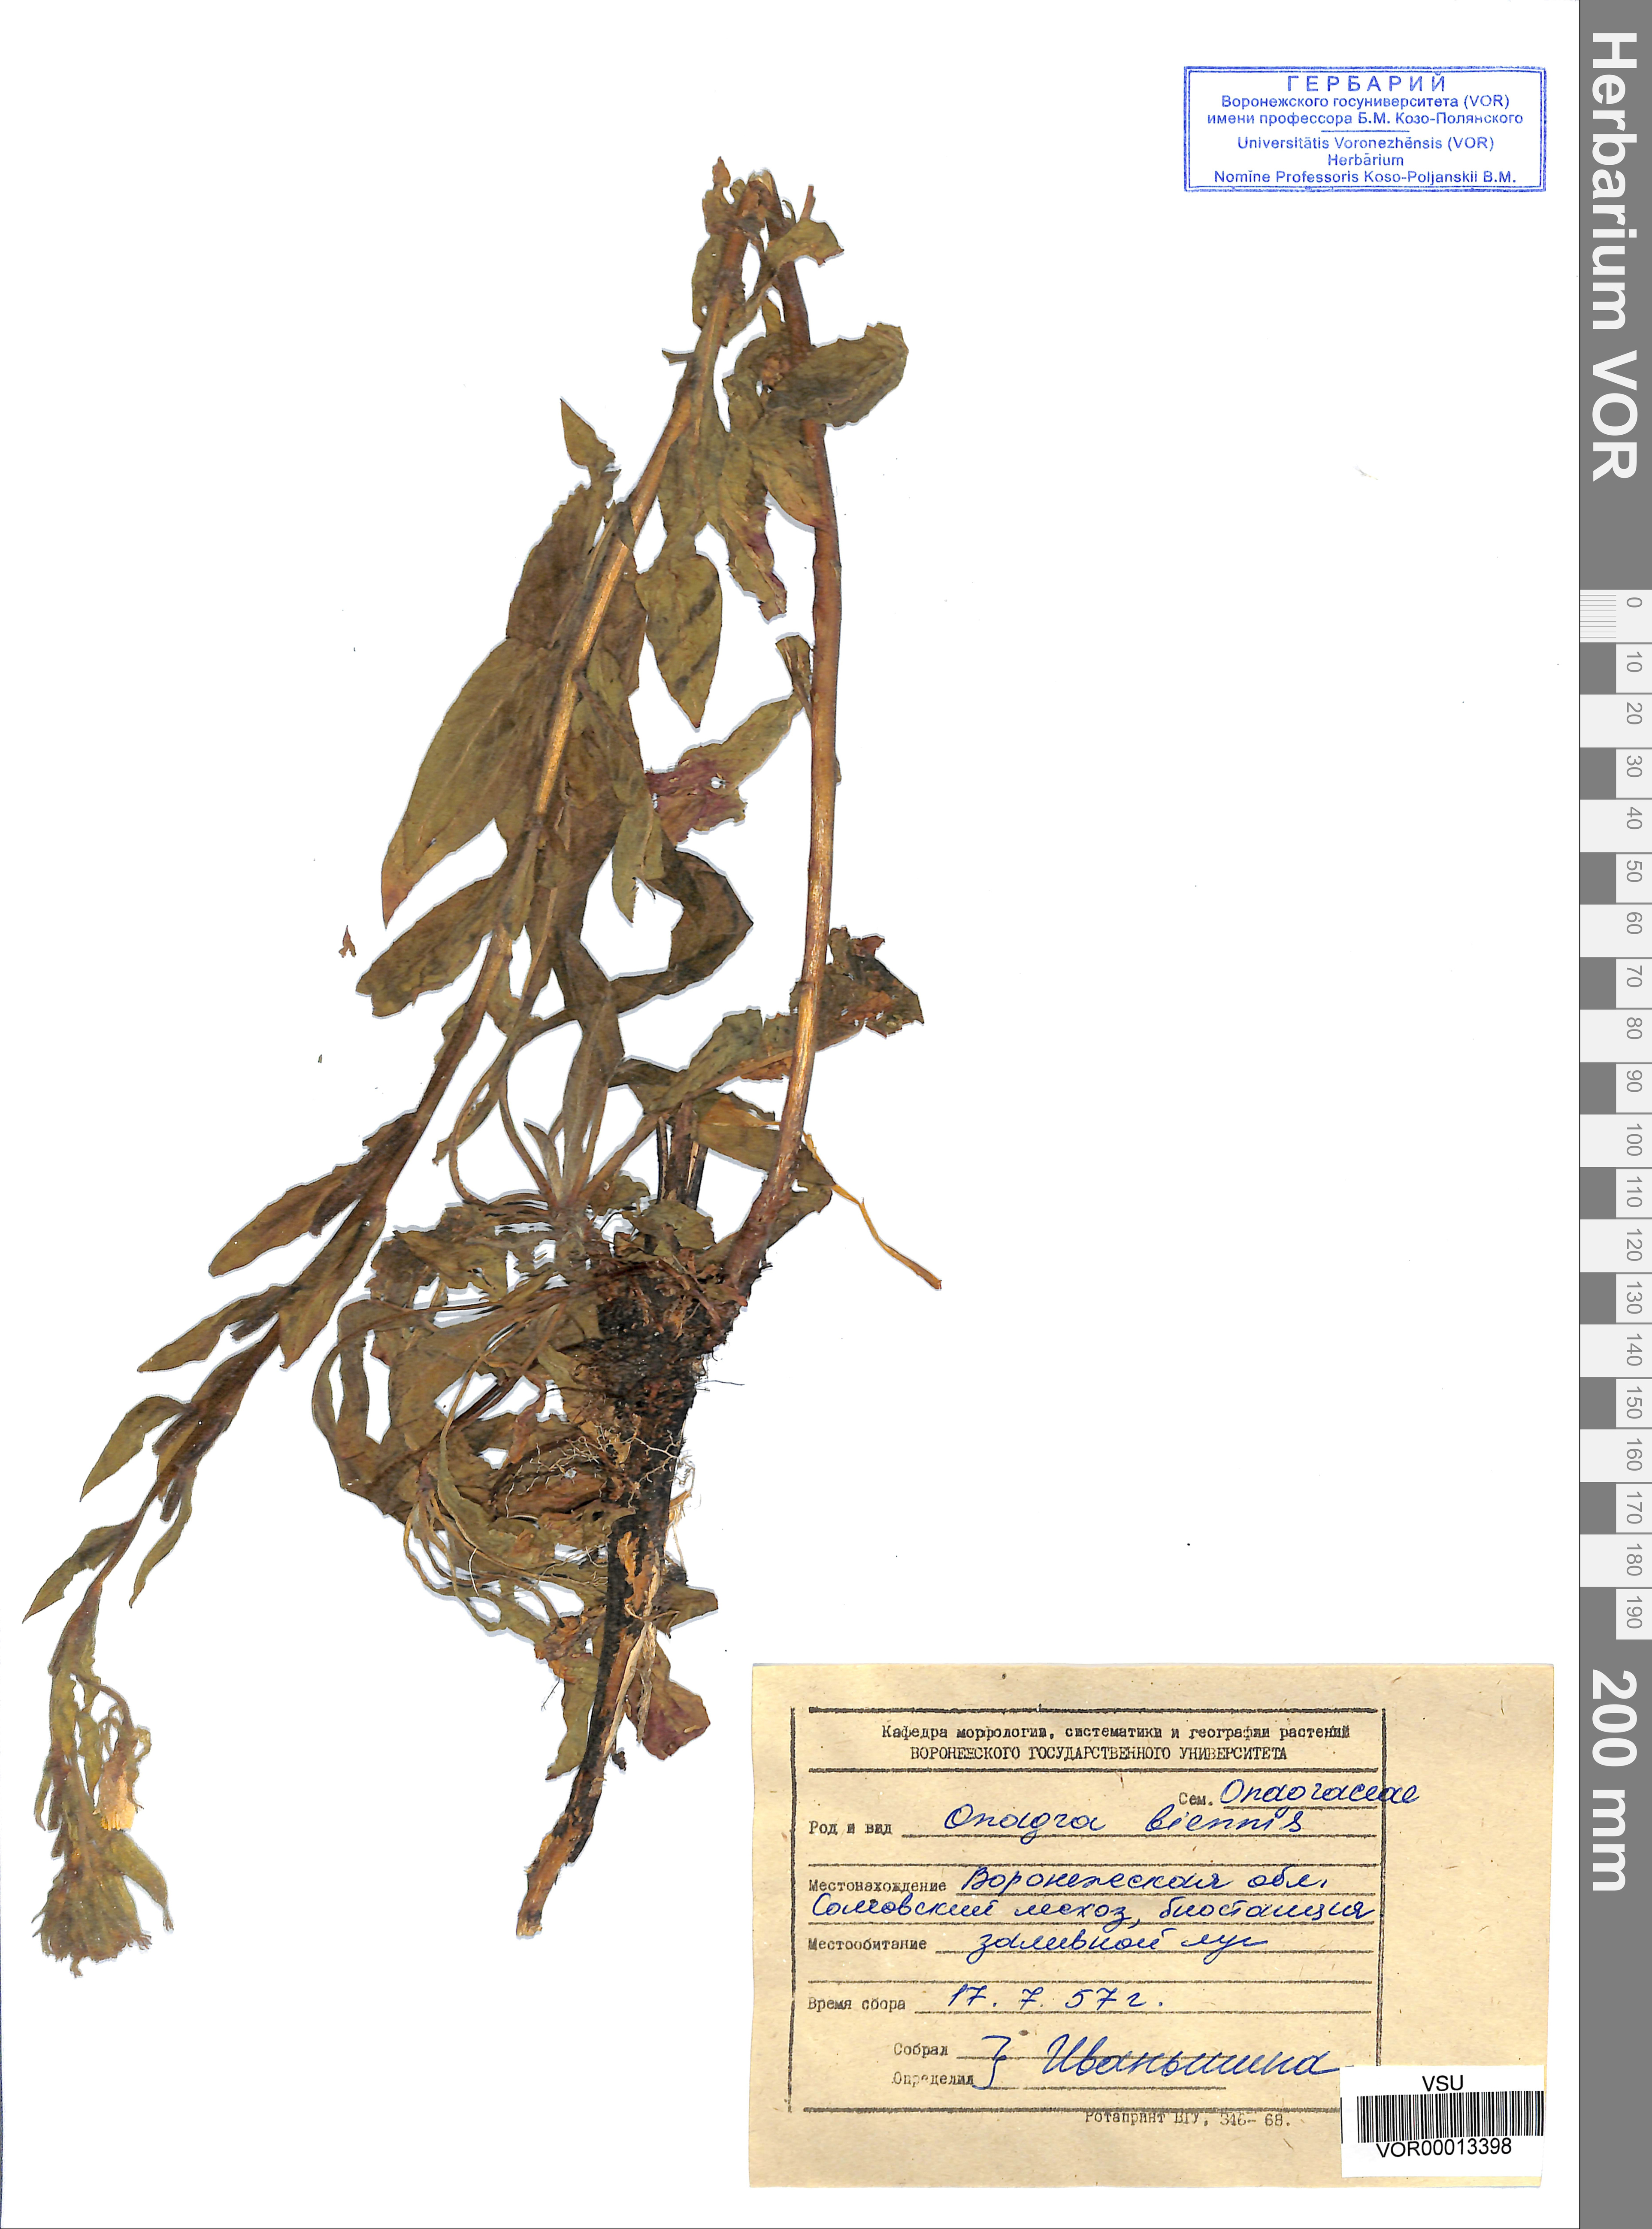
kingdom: Plantae
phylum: Tracheophyta
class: Magnoliopsida
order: Myrtales
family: Onagraceae
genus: Oenothera
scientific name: Oenothera biennis
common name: Common evening-primrose
